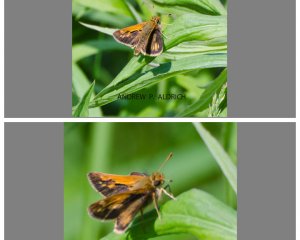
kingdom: Animalia
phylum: Arthropoda
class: Insecta
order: Lepidoptera
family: Hesperiidae
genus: Polites
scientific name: Polites coras
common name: Peck's Skipper
